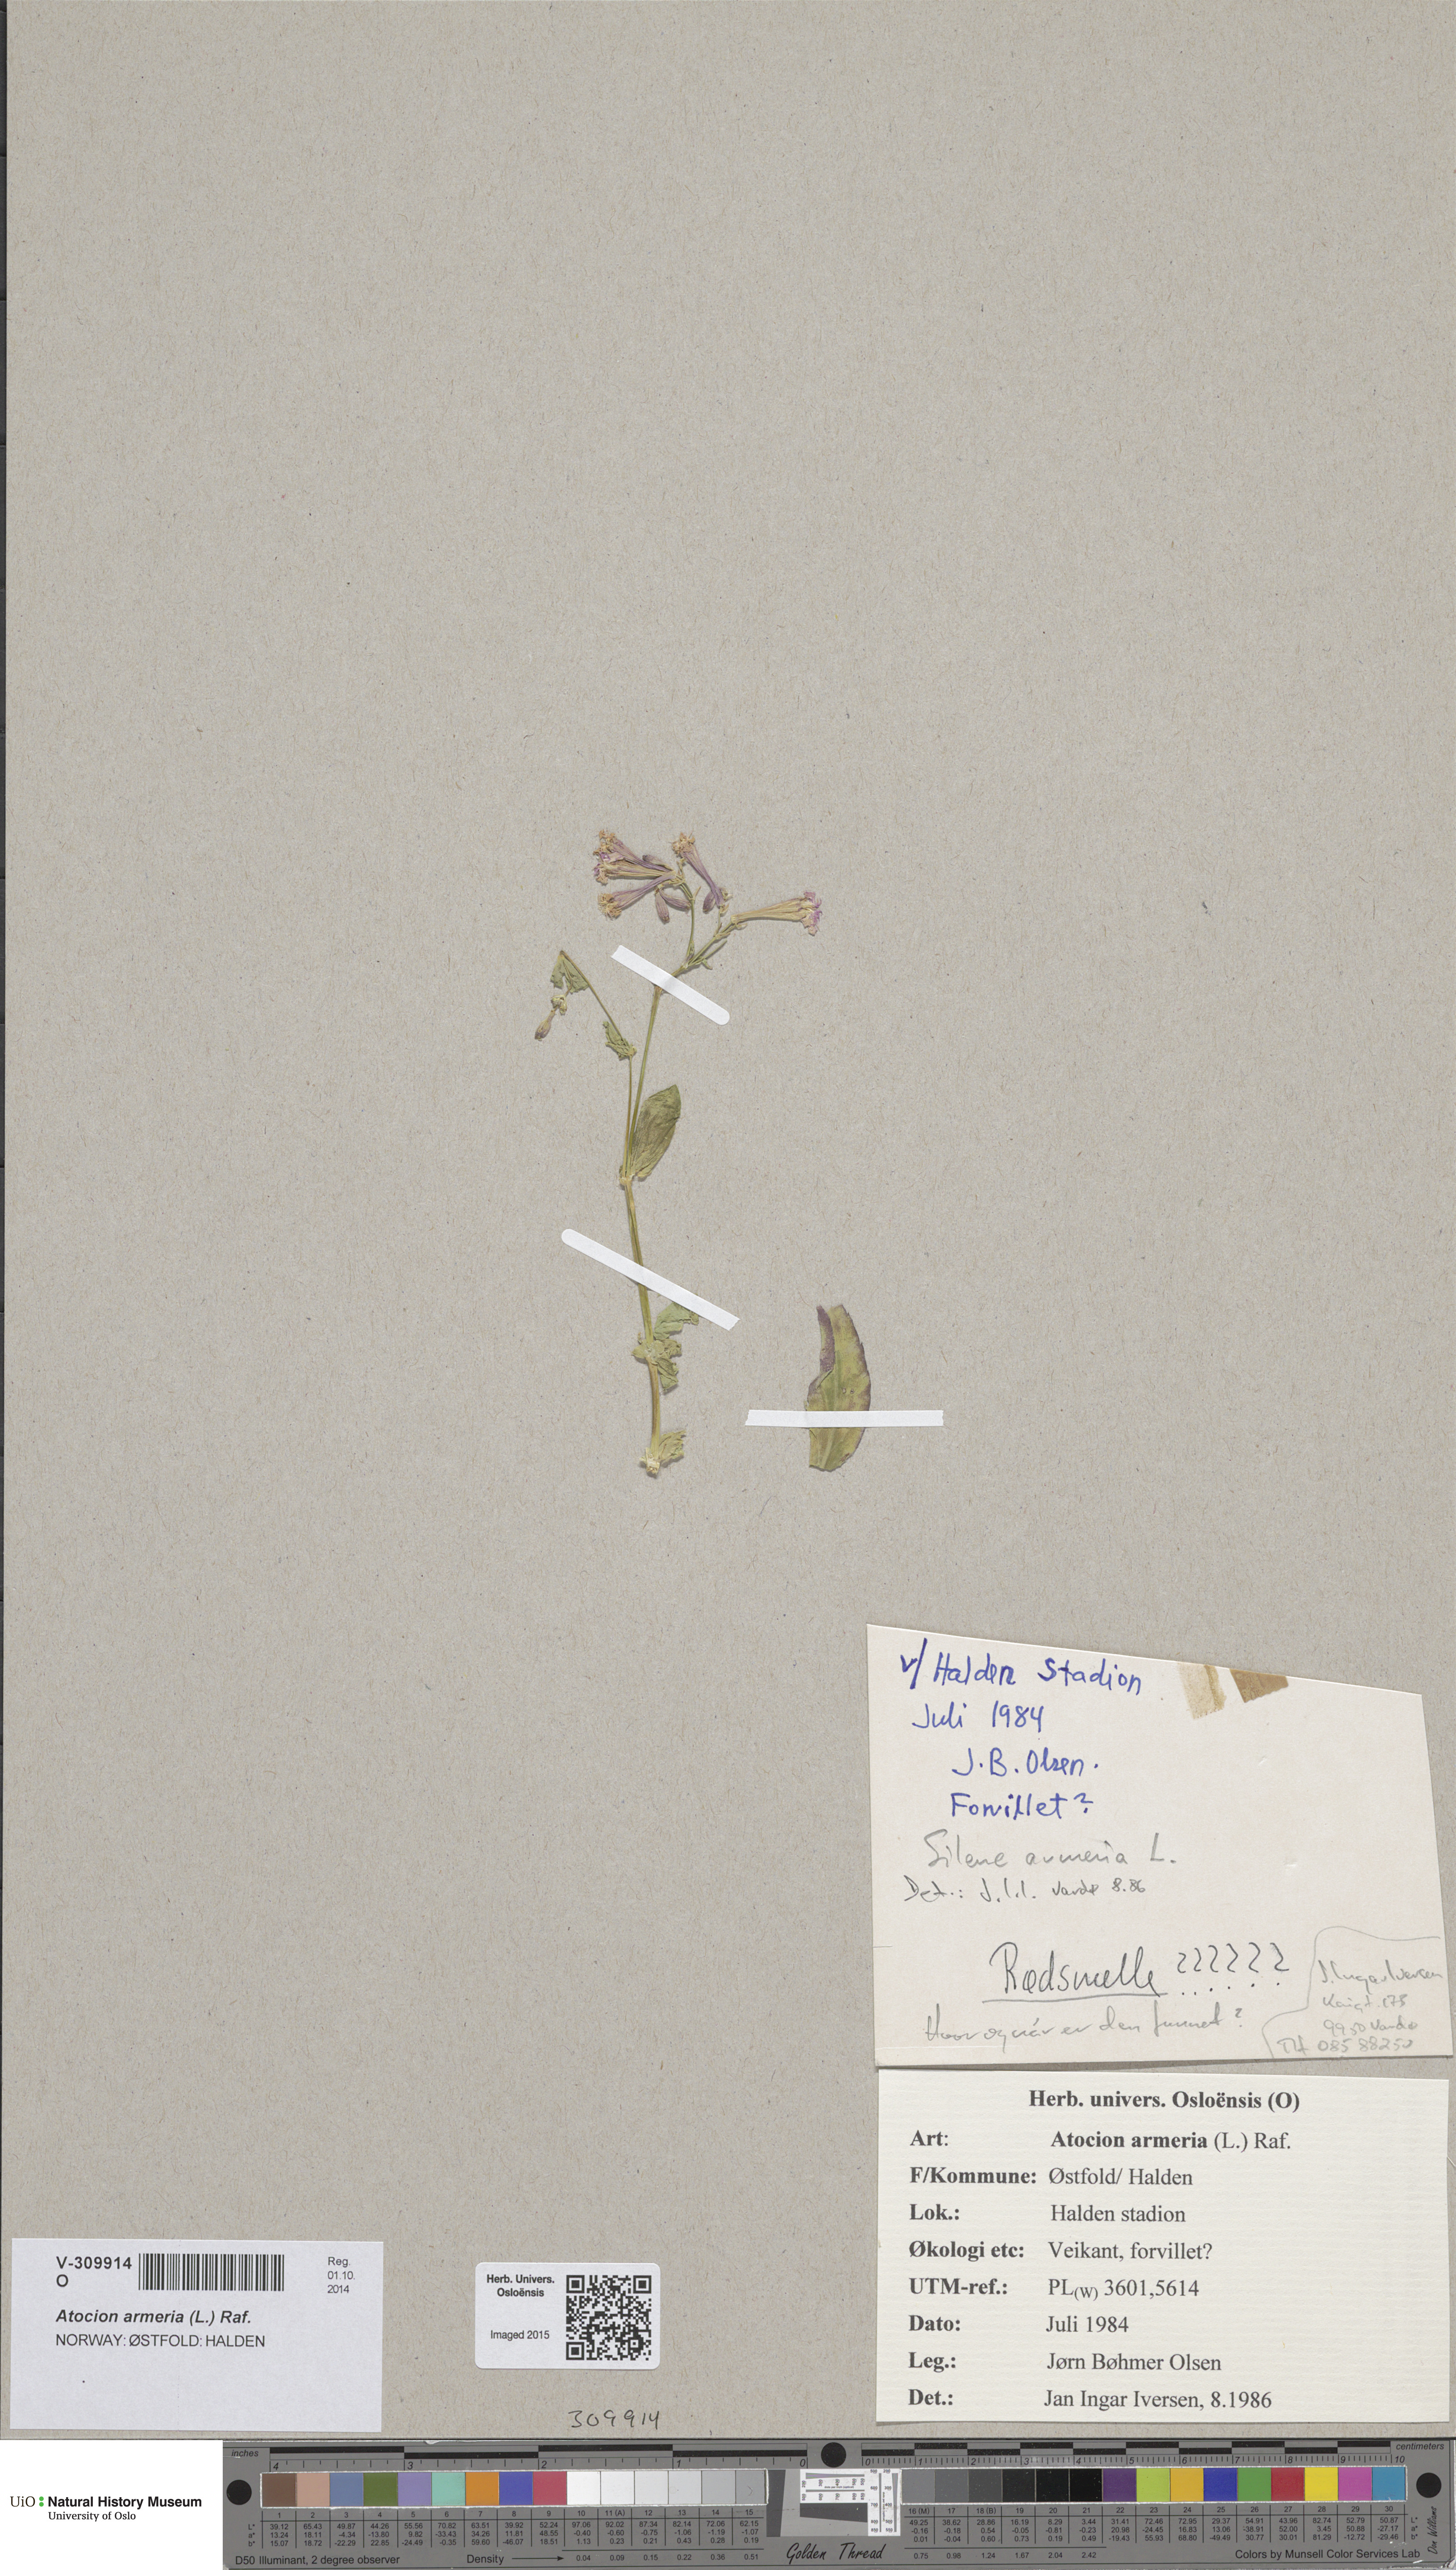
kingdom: Plantae
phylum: Tracheophyta
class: Magnoliopsida
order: Caryophyllales
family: Caryophyllaceae
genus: Atocion
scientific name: Atocion armeria
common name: Sweet william catchfly
